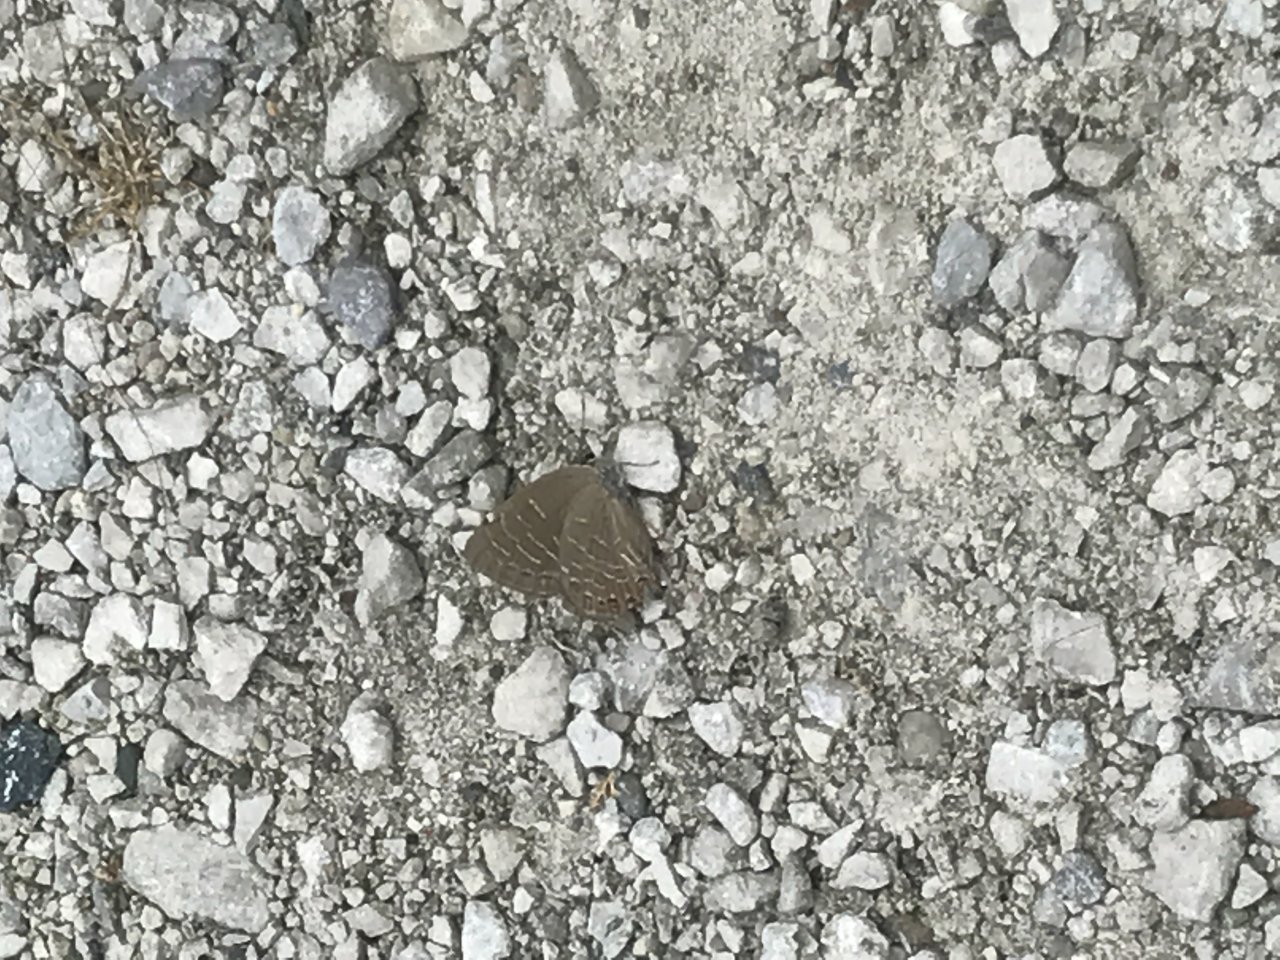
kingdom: Animalia
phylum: Arthropoda
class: Insecta
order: Lepidoptera
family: Lycaenidae
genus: Satyrium
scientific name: Satyrium
